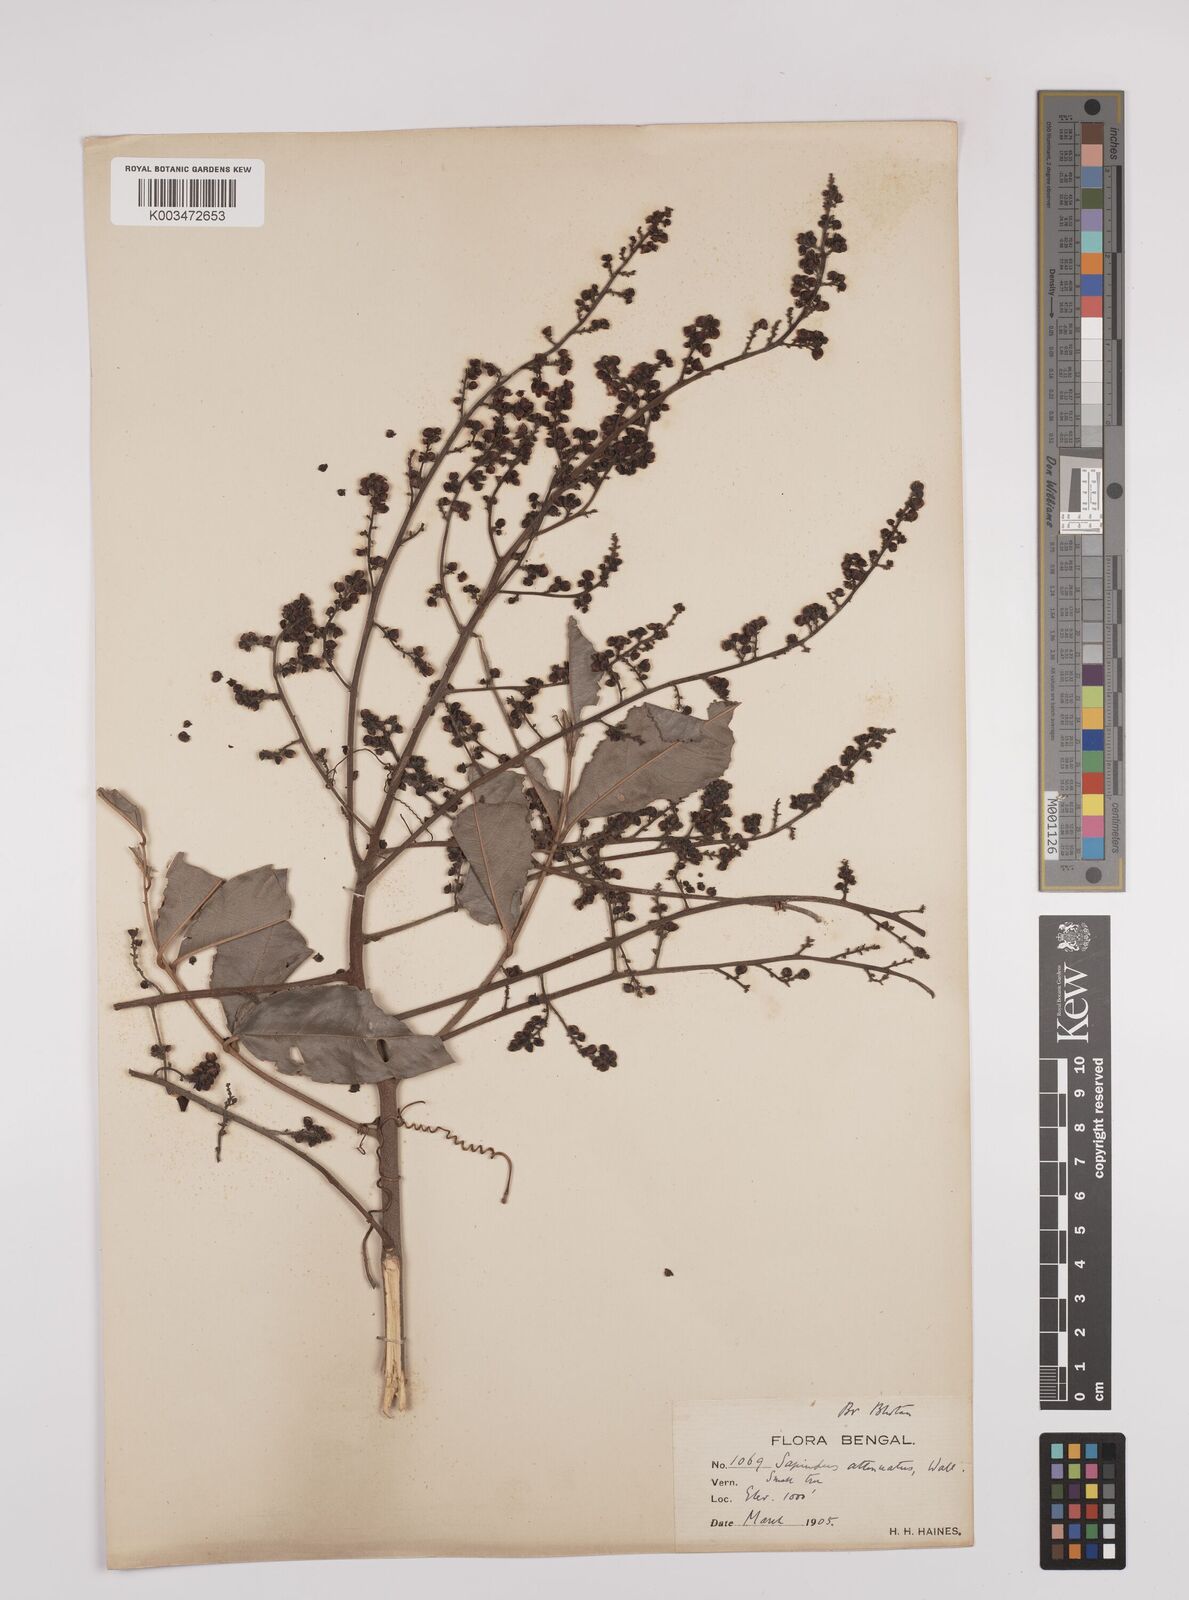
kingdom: Plantae
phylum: Tracheophyta
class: Magnoliopsida
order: Sapindales
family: Sapindaceae
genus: Lepisanthes
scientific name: Lepisanthes senegalensis
